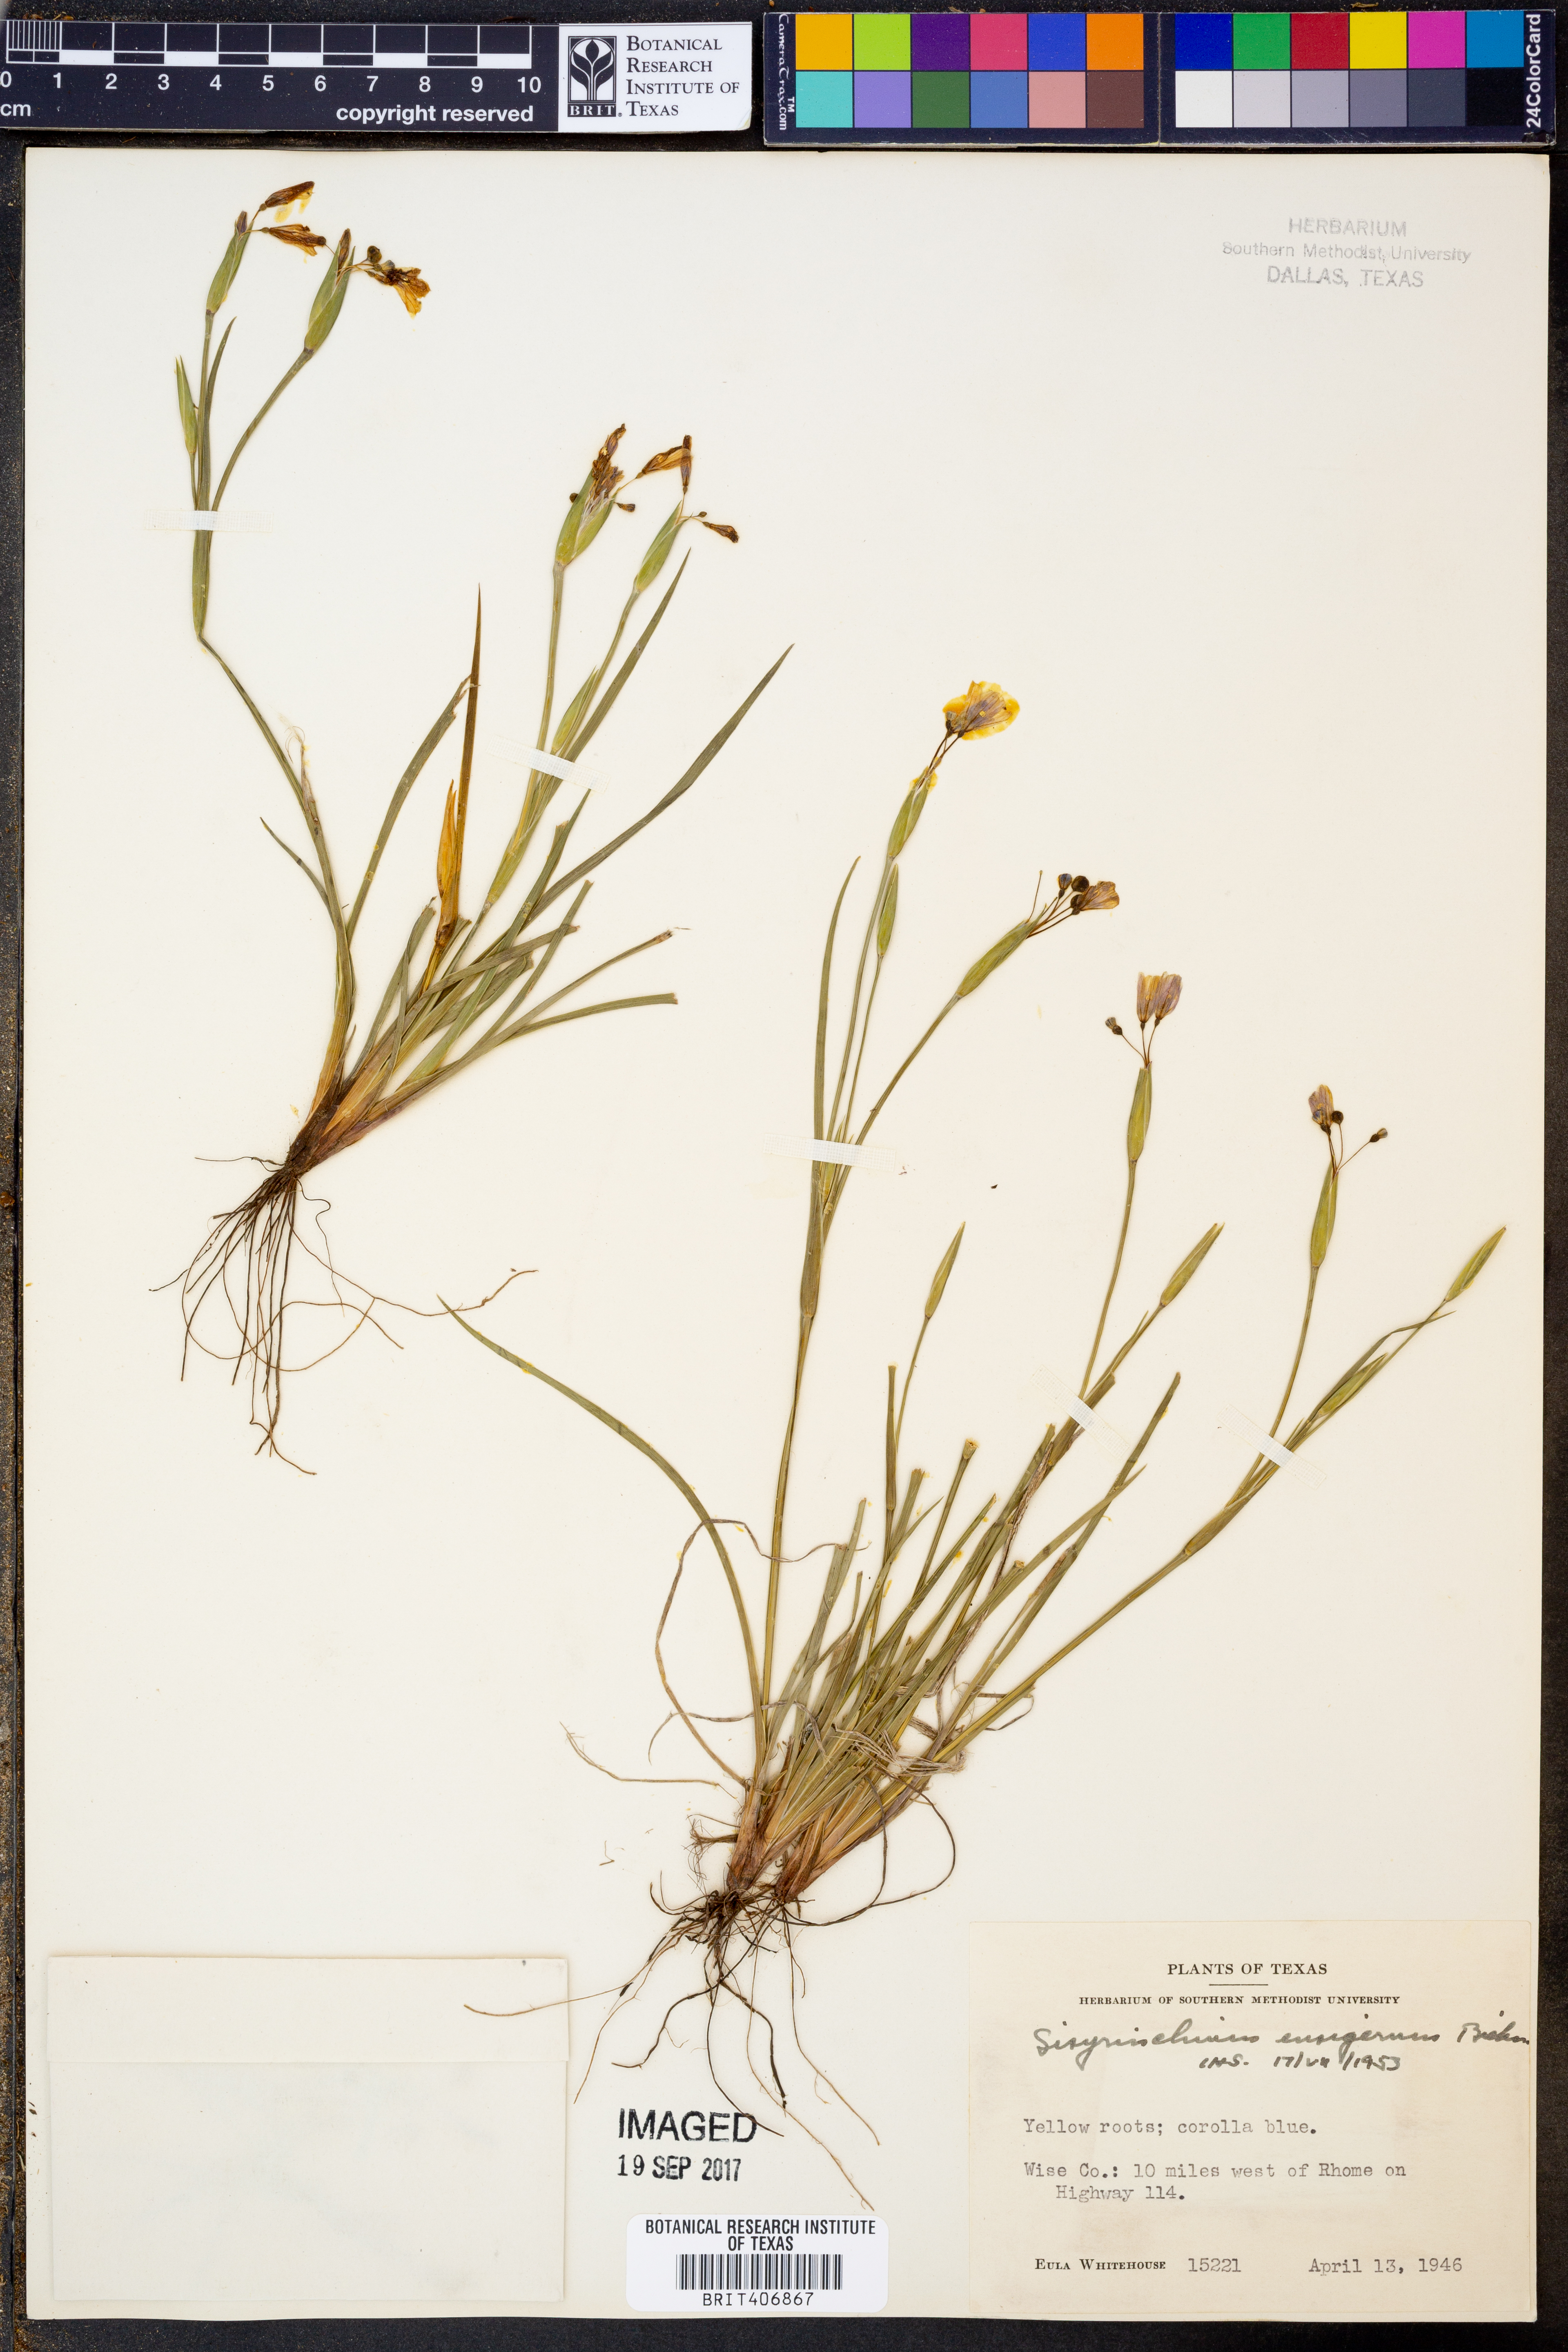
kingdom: Plantae
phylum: Tracheophyta
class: Liliopsida
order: Asparagales
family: Iridaceae
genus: Sisyrinchium
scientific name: Sisyrinchium ensigerum
